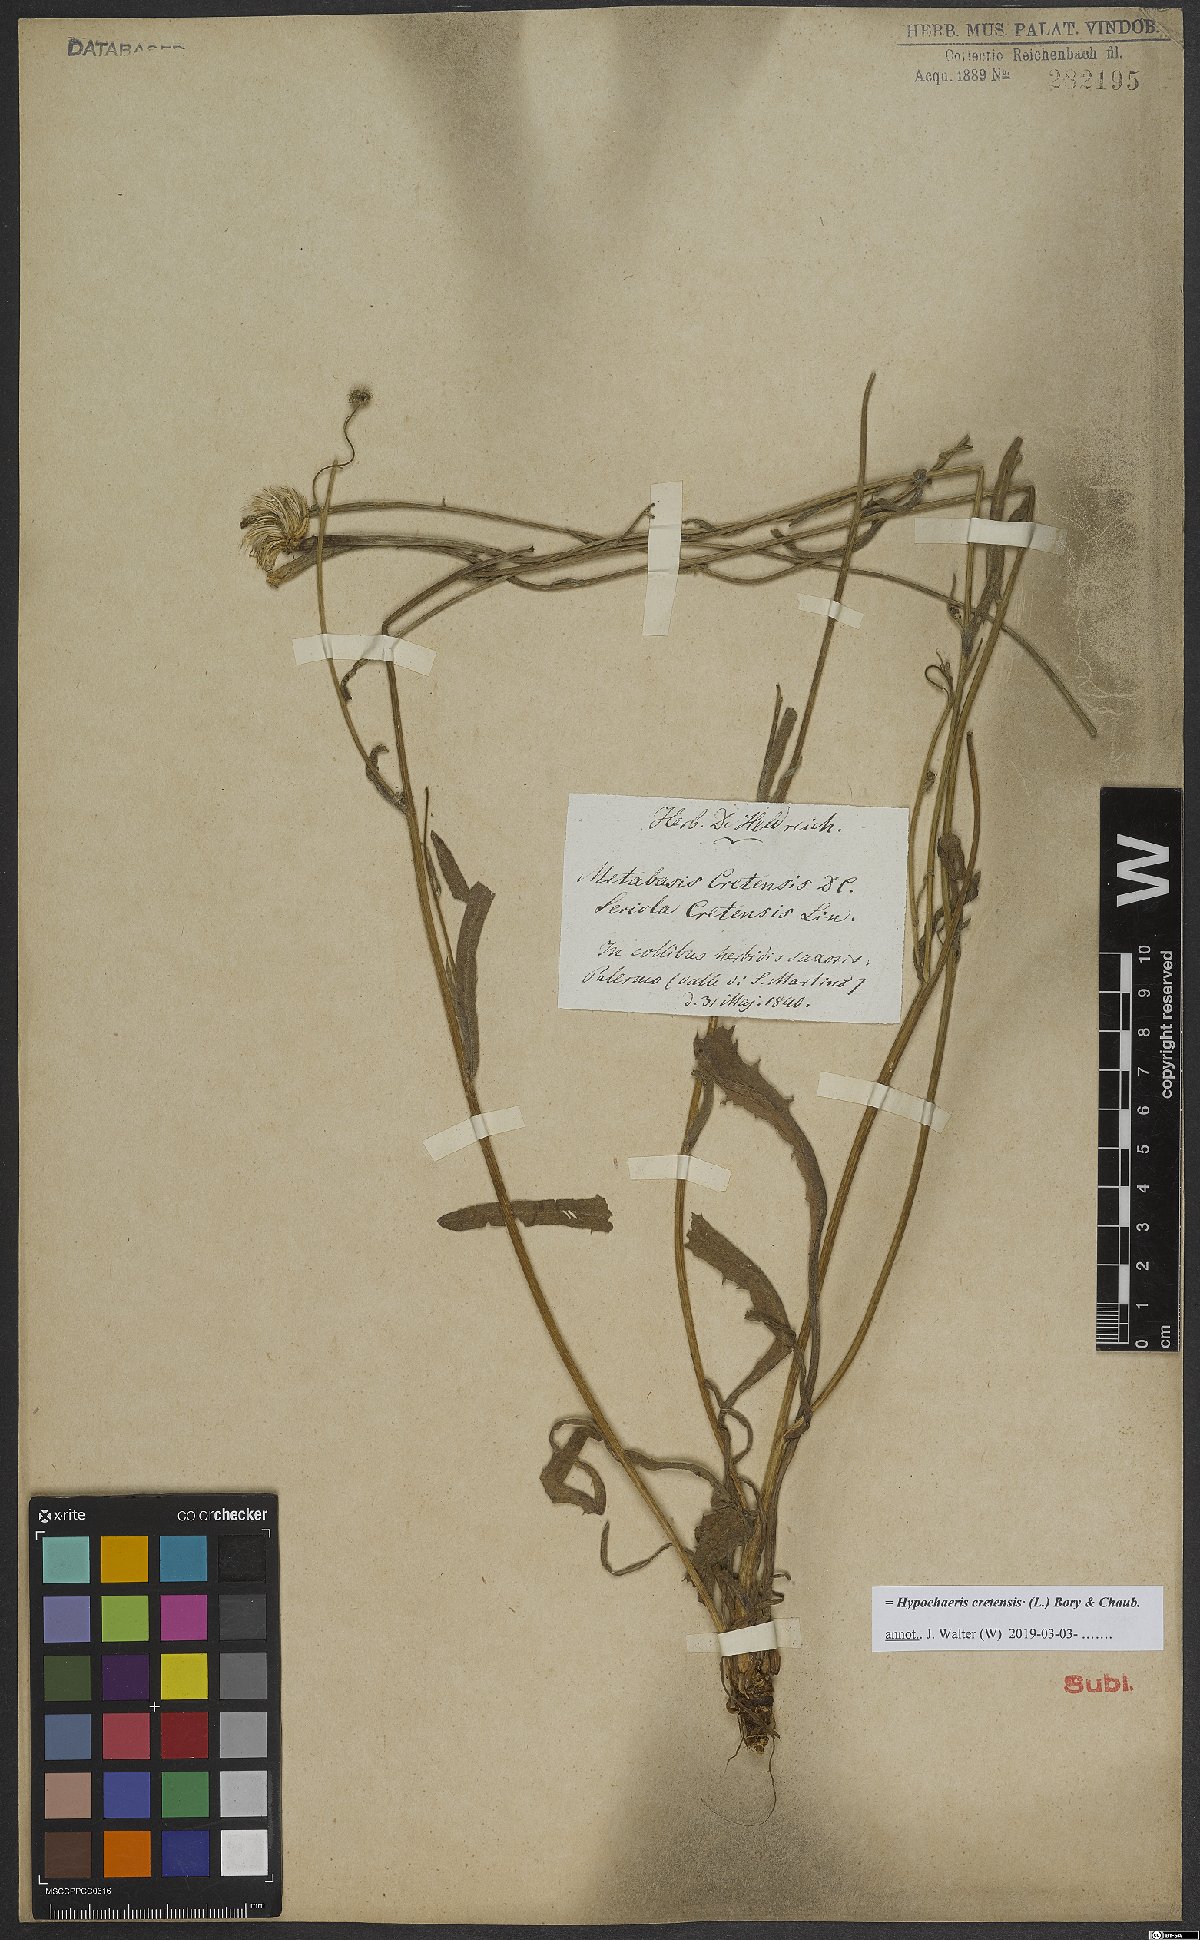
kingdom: Plantae
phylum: Tracheophyta
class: Magnoliopsida
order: Asterales
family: Asteraceae
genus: Hypochaeris
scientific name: Hypochaeris cretensis
